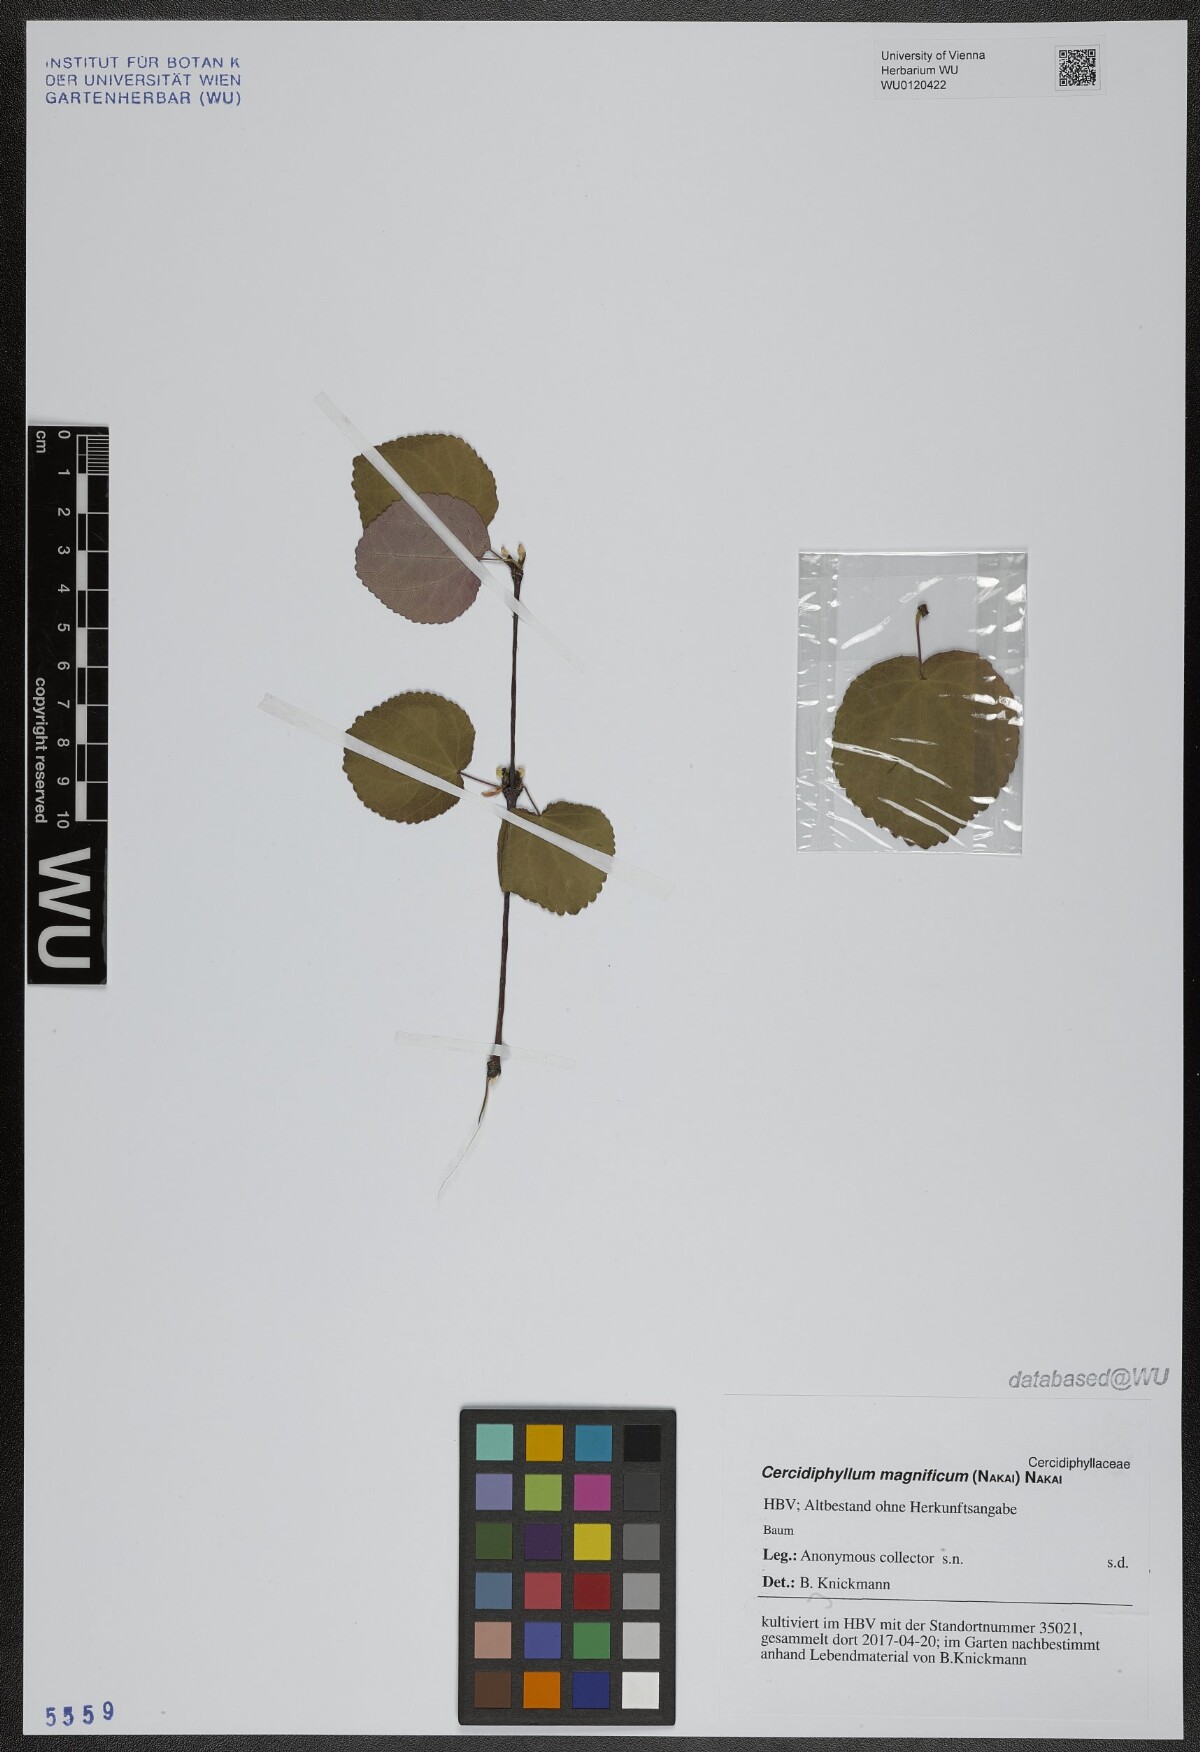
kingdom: Plantae
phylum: Tracheophyta
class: Magnoliopsida
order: Saxifragales
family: Cercidiphyllaceae
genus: Cercidiphyllum
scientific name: Cercidiphyllum magnificum
